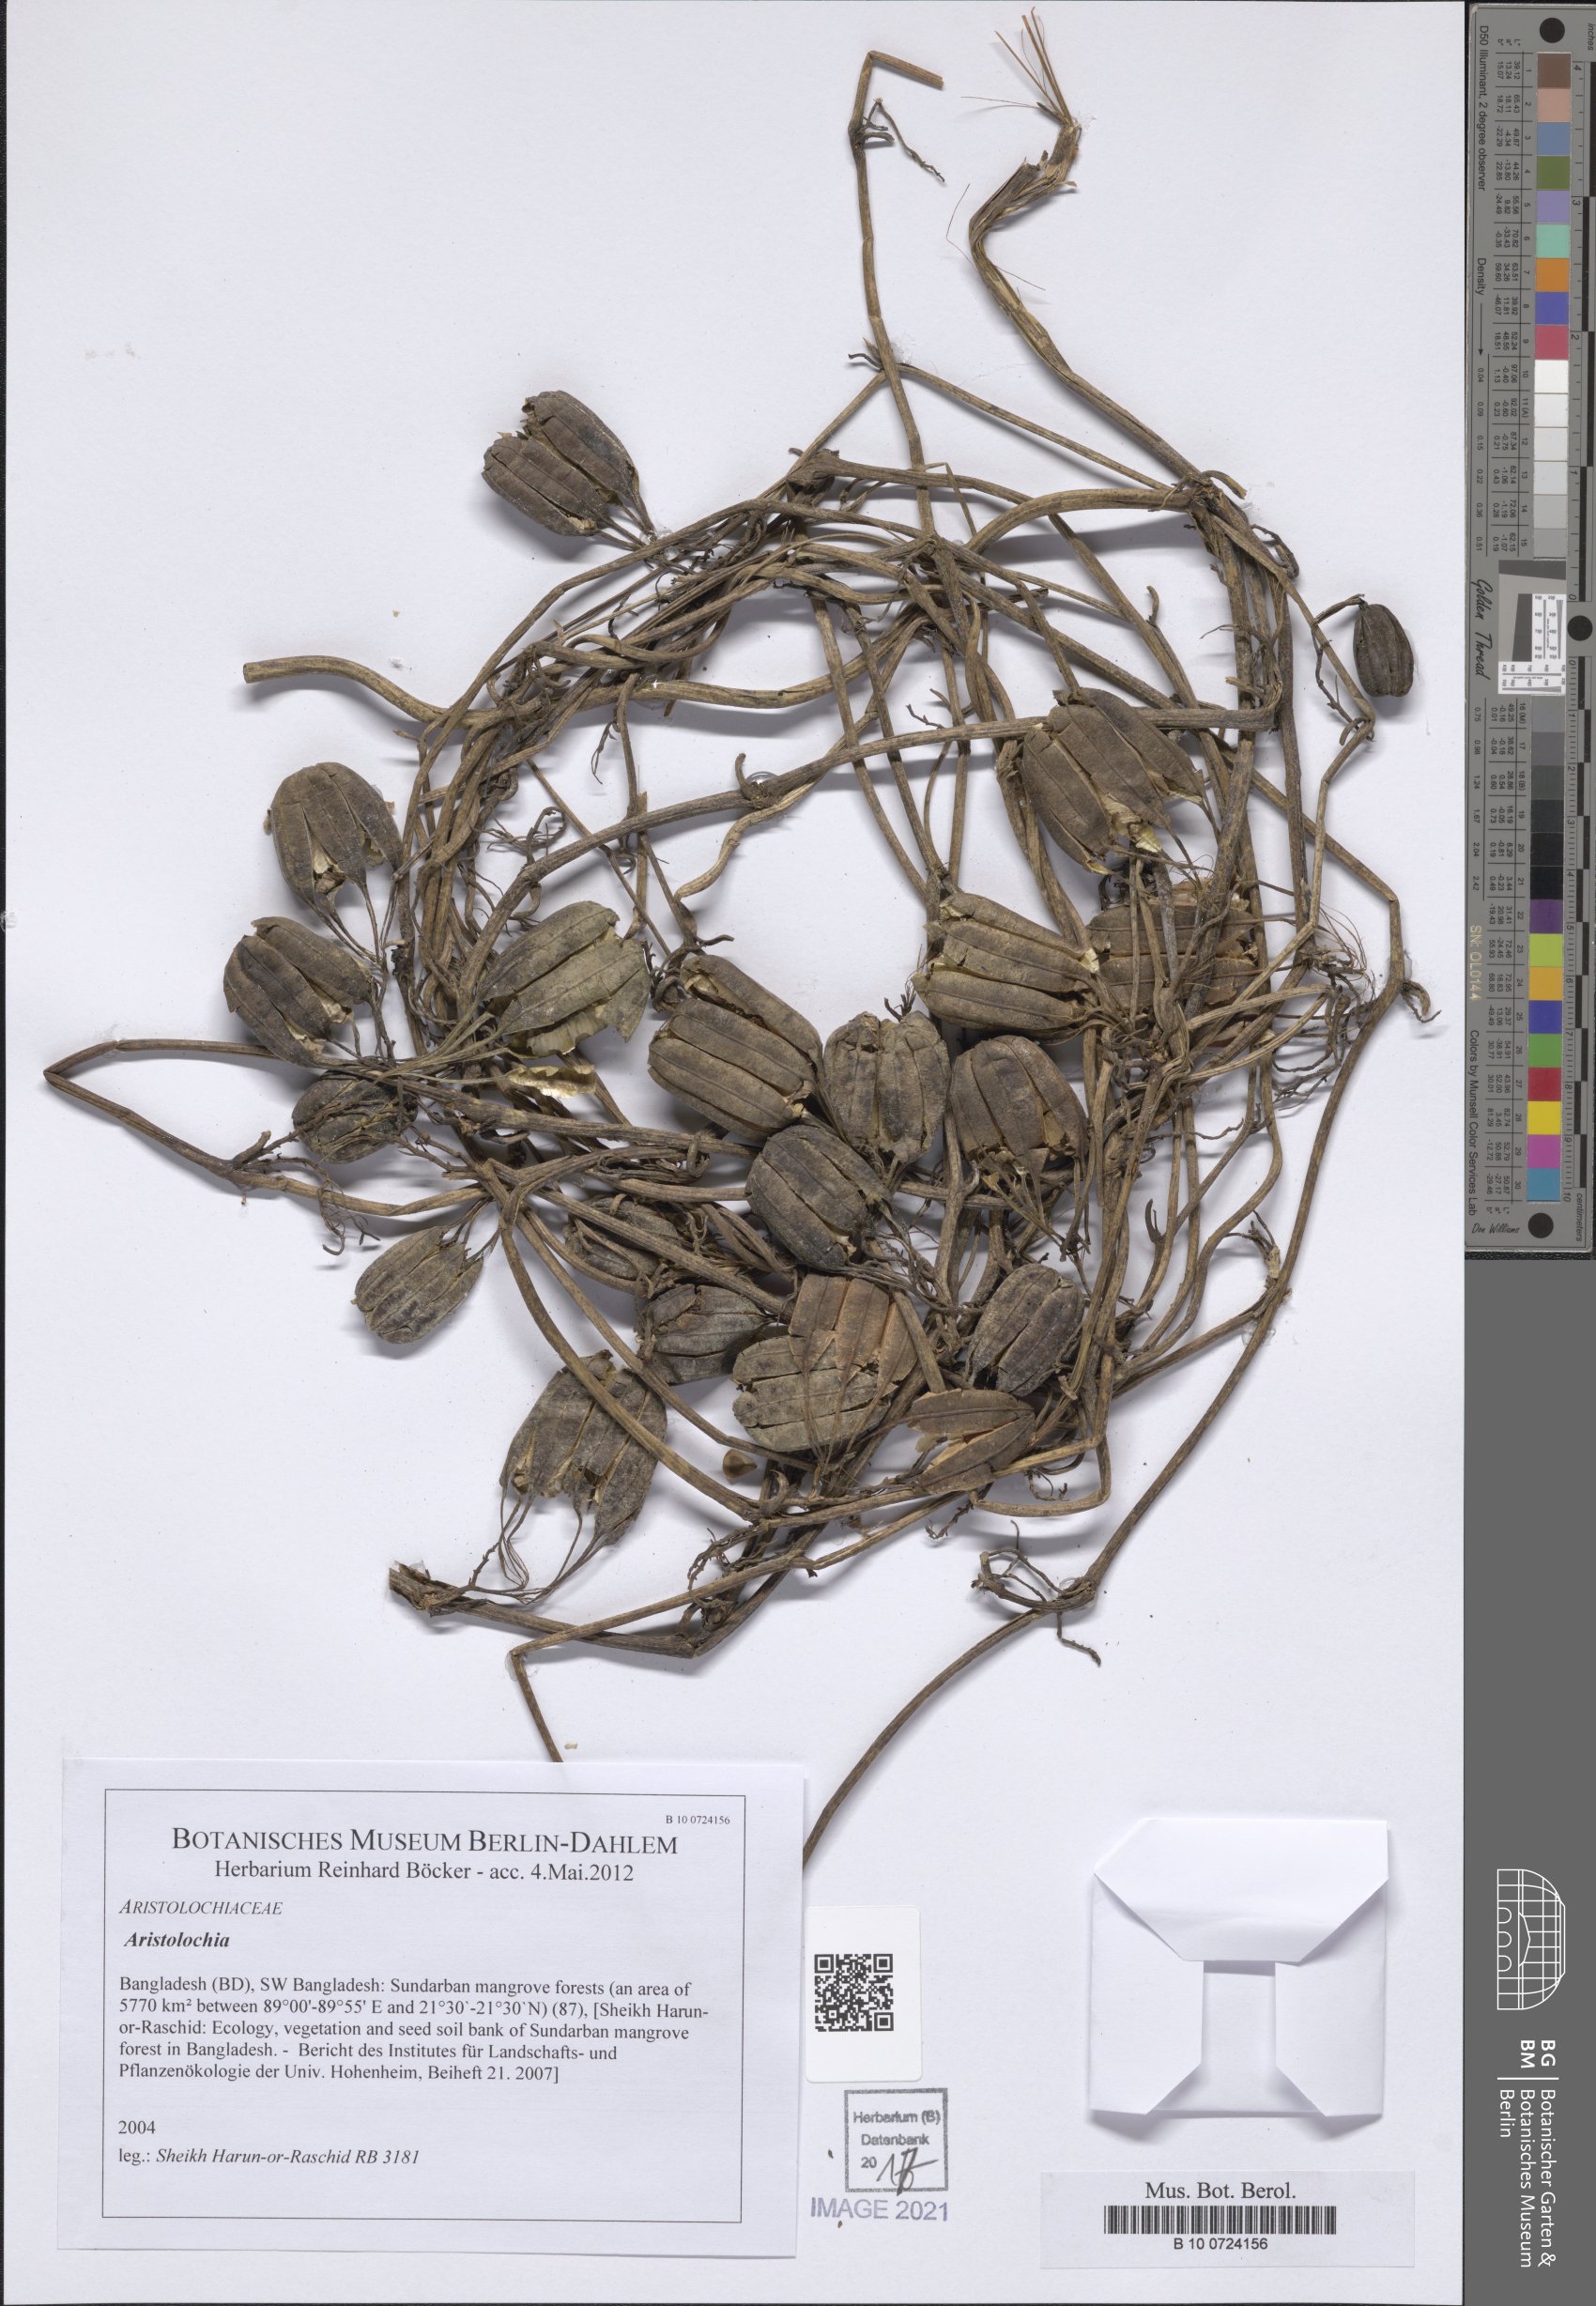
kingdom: Plantae
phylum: Tracheophyta
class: Magnoliopsida
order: Piperales
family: Aristolochiaceae
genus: Aristolochia
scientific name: Aristolochia
